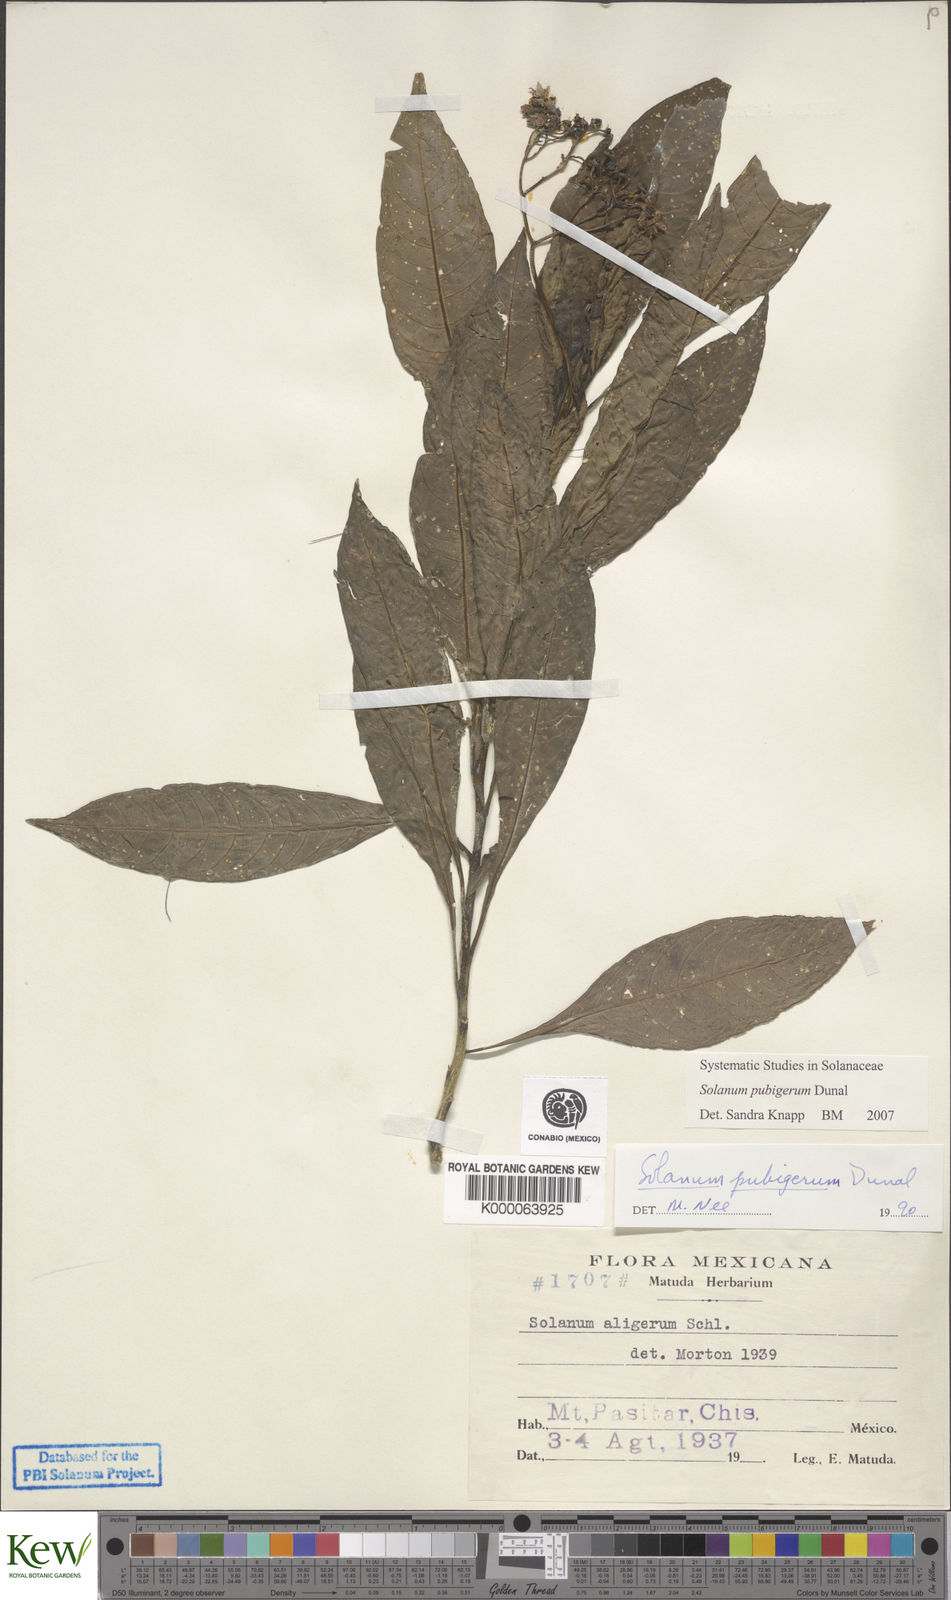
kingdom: Plantae
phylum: Tracheophyta
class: Magnoliopsida
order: Solanales
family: Solanaceae
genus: Solanum
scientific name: Solanum pubigerum
